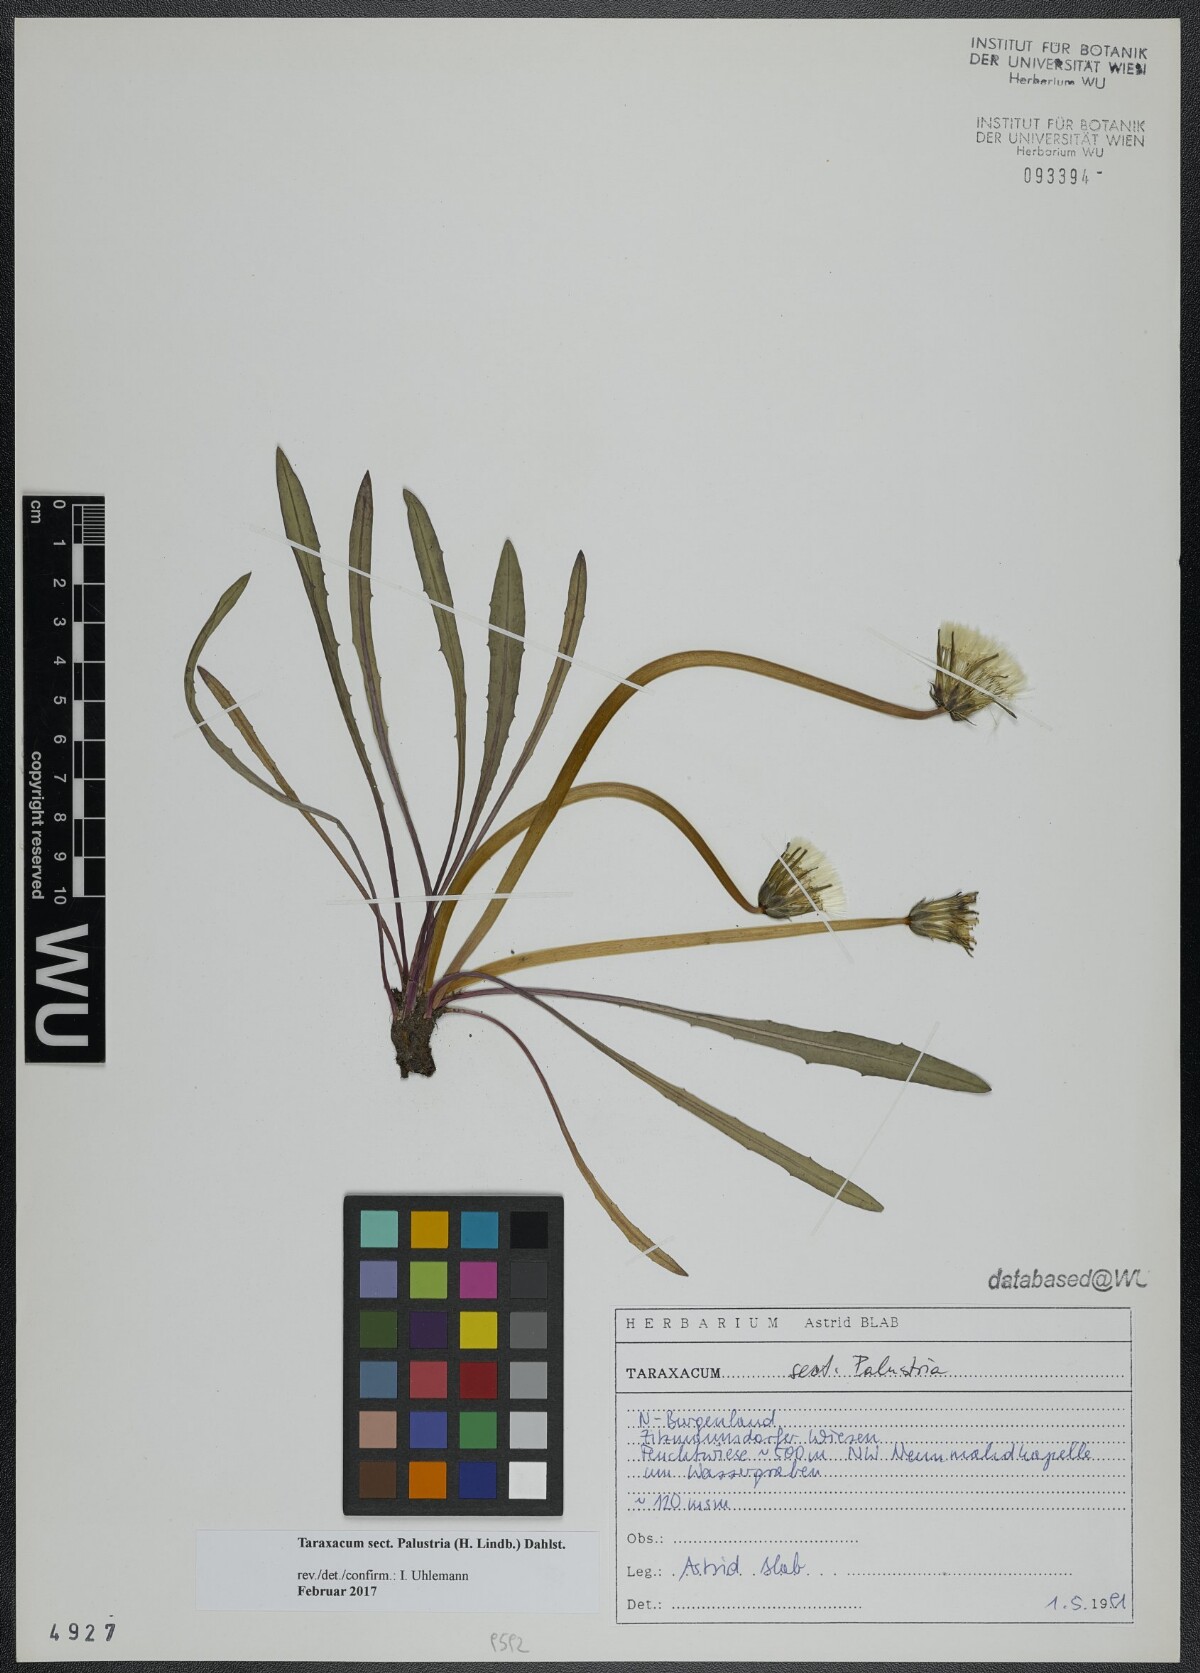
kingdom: Plantae
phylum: Tracheophyta
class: Magnoliopsida
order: Asterales
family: Asteraceae
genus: Taraxacum
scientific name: Taraxacum
